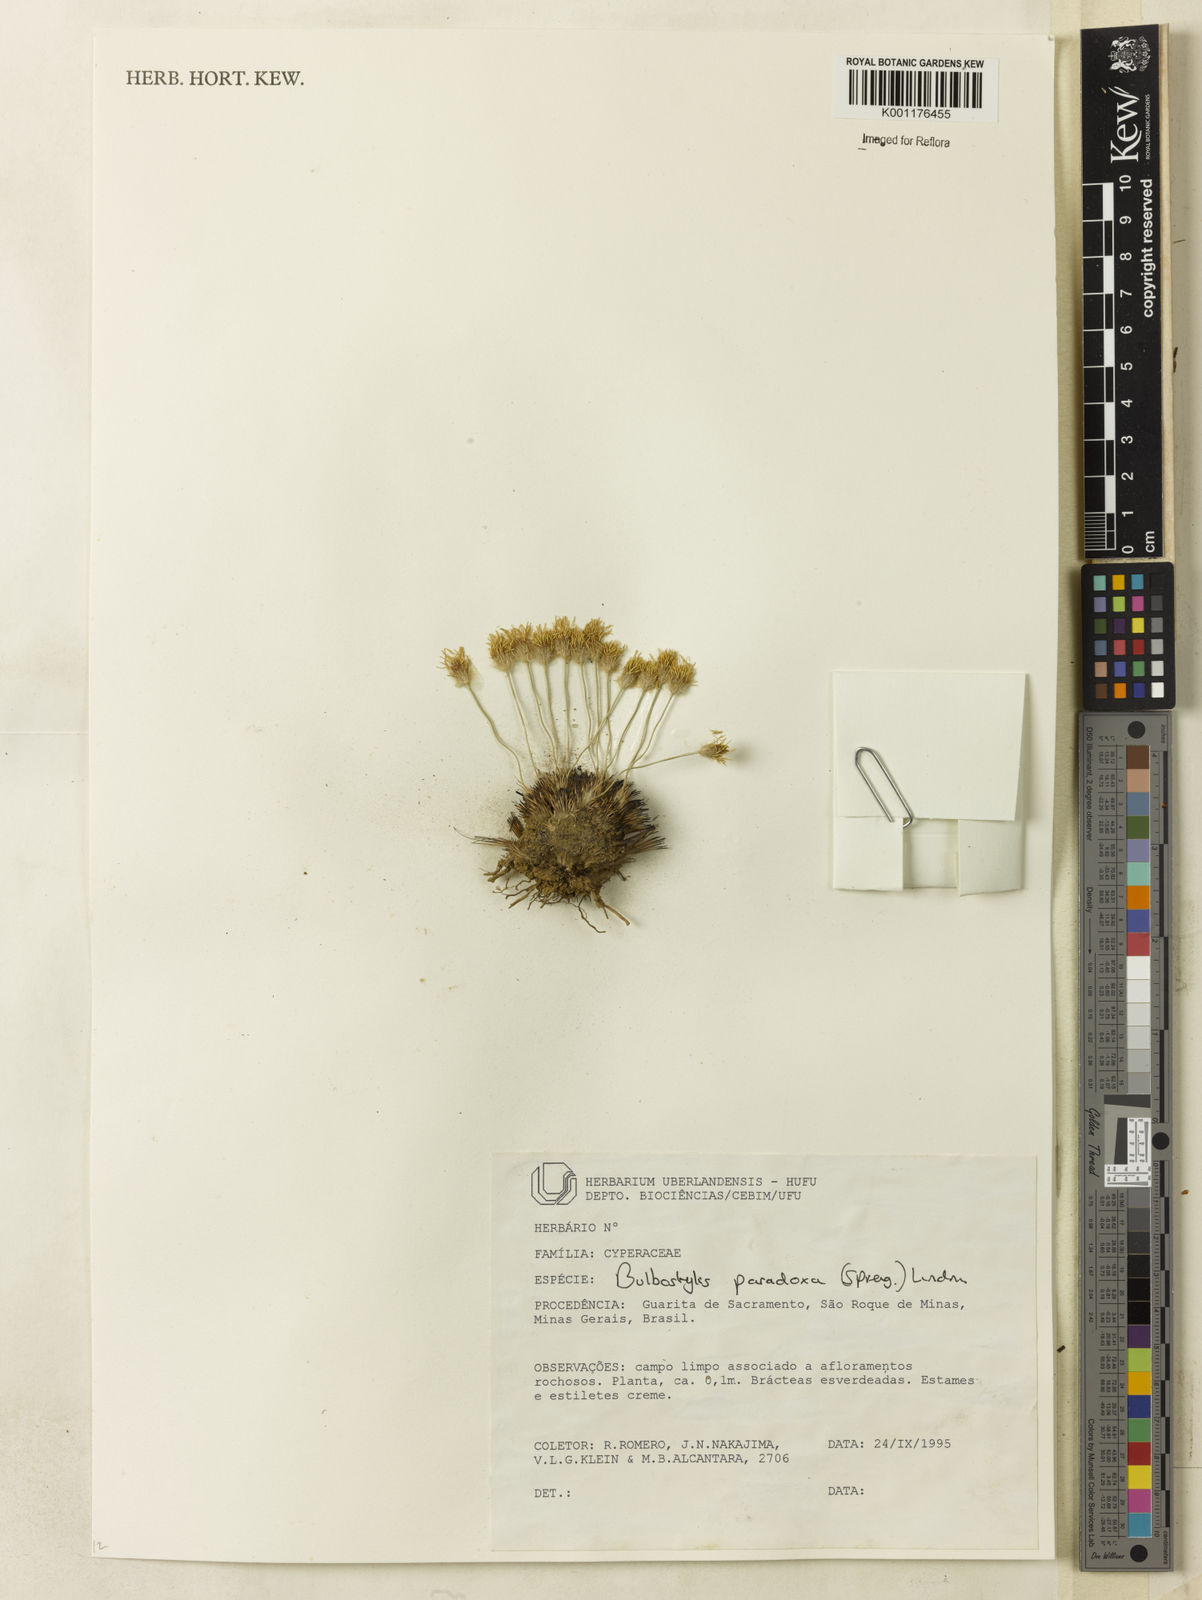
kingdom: Plantae
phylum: Tracheophyta
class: Liliopsida
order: Poales
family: Cyperaceae
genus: Bulbostylis
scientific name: Bulbostylis paradoxa
